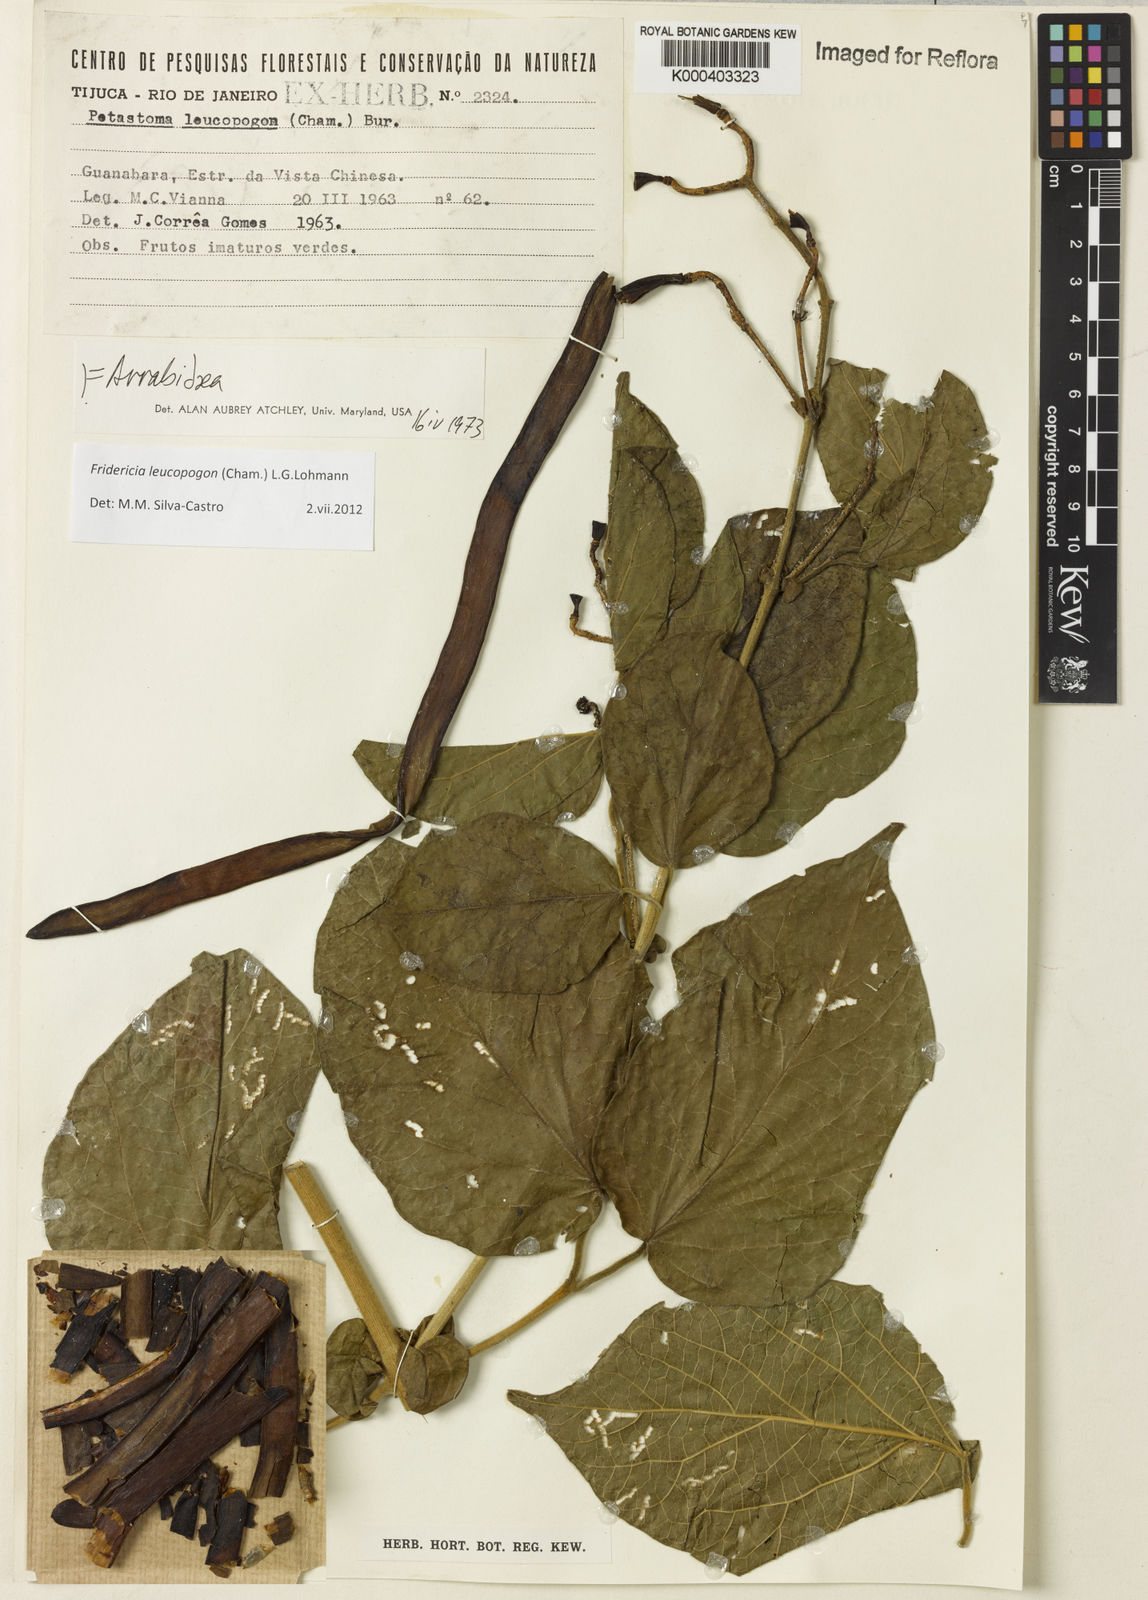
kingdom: Plantae
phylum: Tracheophyta
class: Magnoliopsida
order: Lamiales
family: Bignoniaceae
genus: Fridericia
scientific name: Fridericia leucopogon
